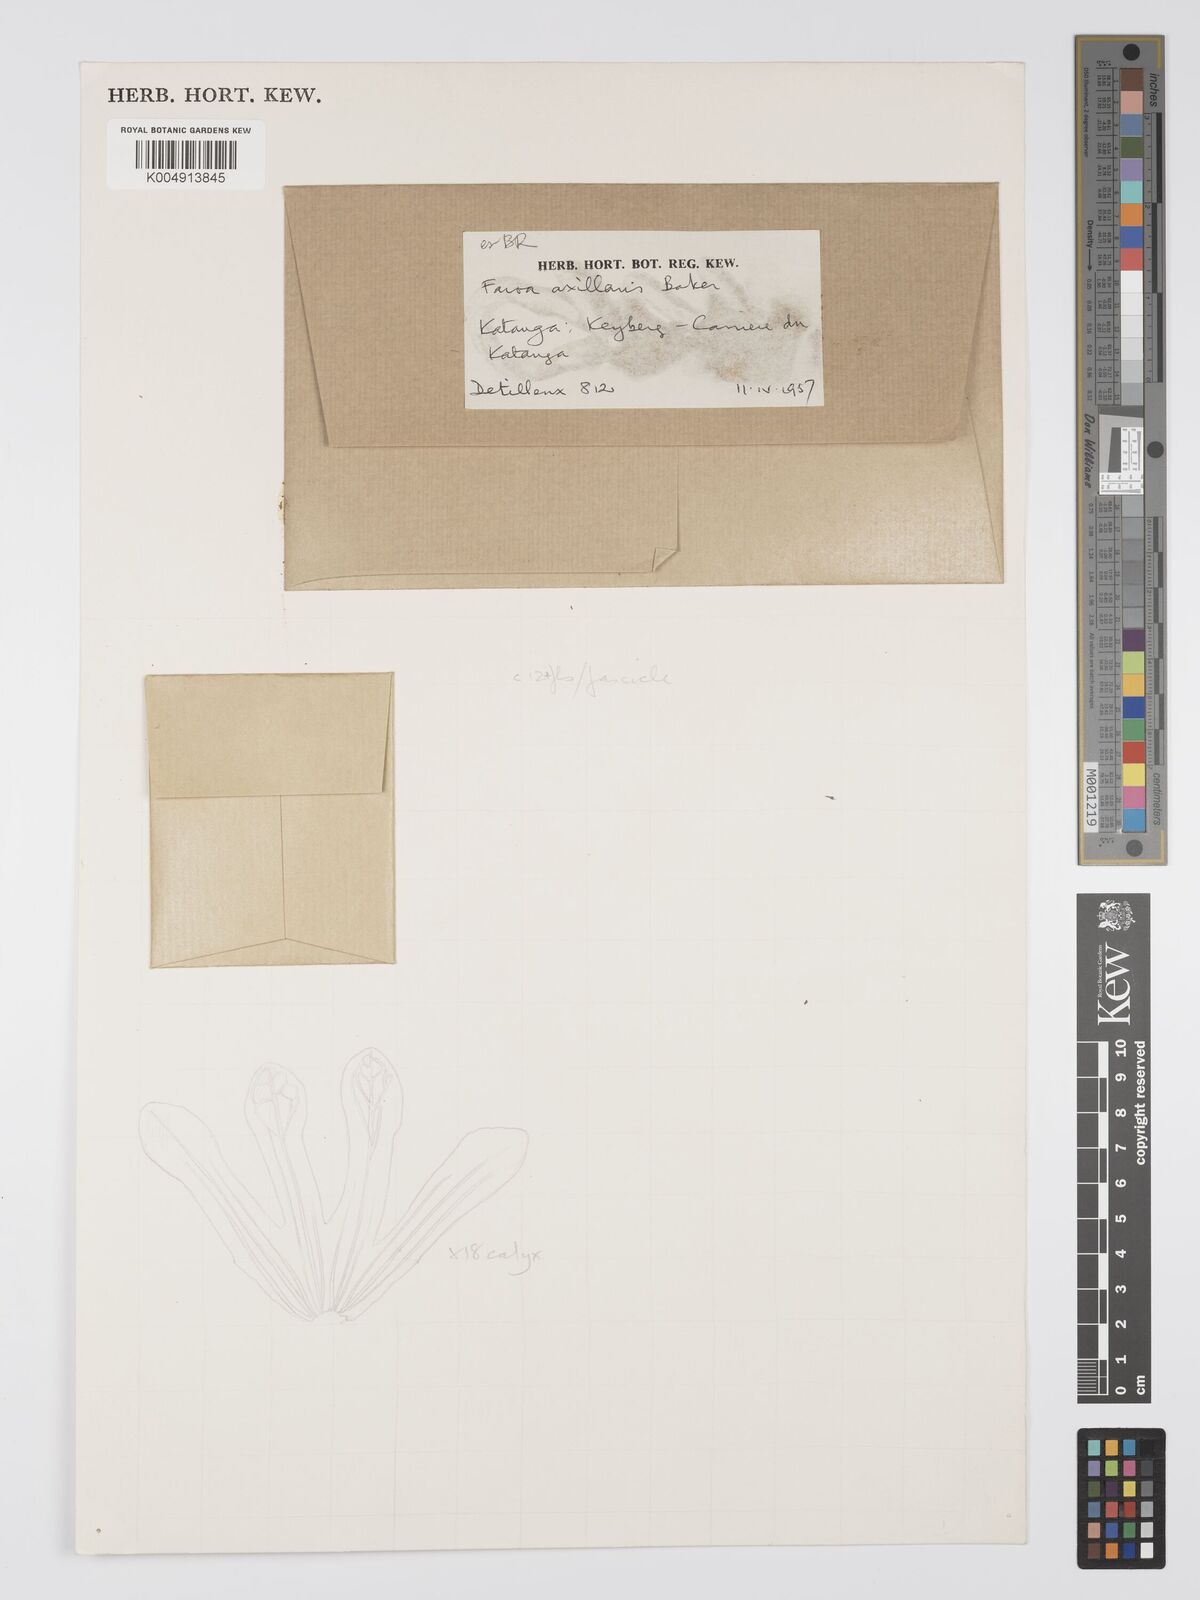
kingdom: Plantae
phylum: Tracheophyta
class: Magnoliopsida
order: Gentianales
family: Gentianaceae
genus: Faroa
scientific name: Faroa axillaris
